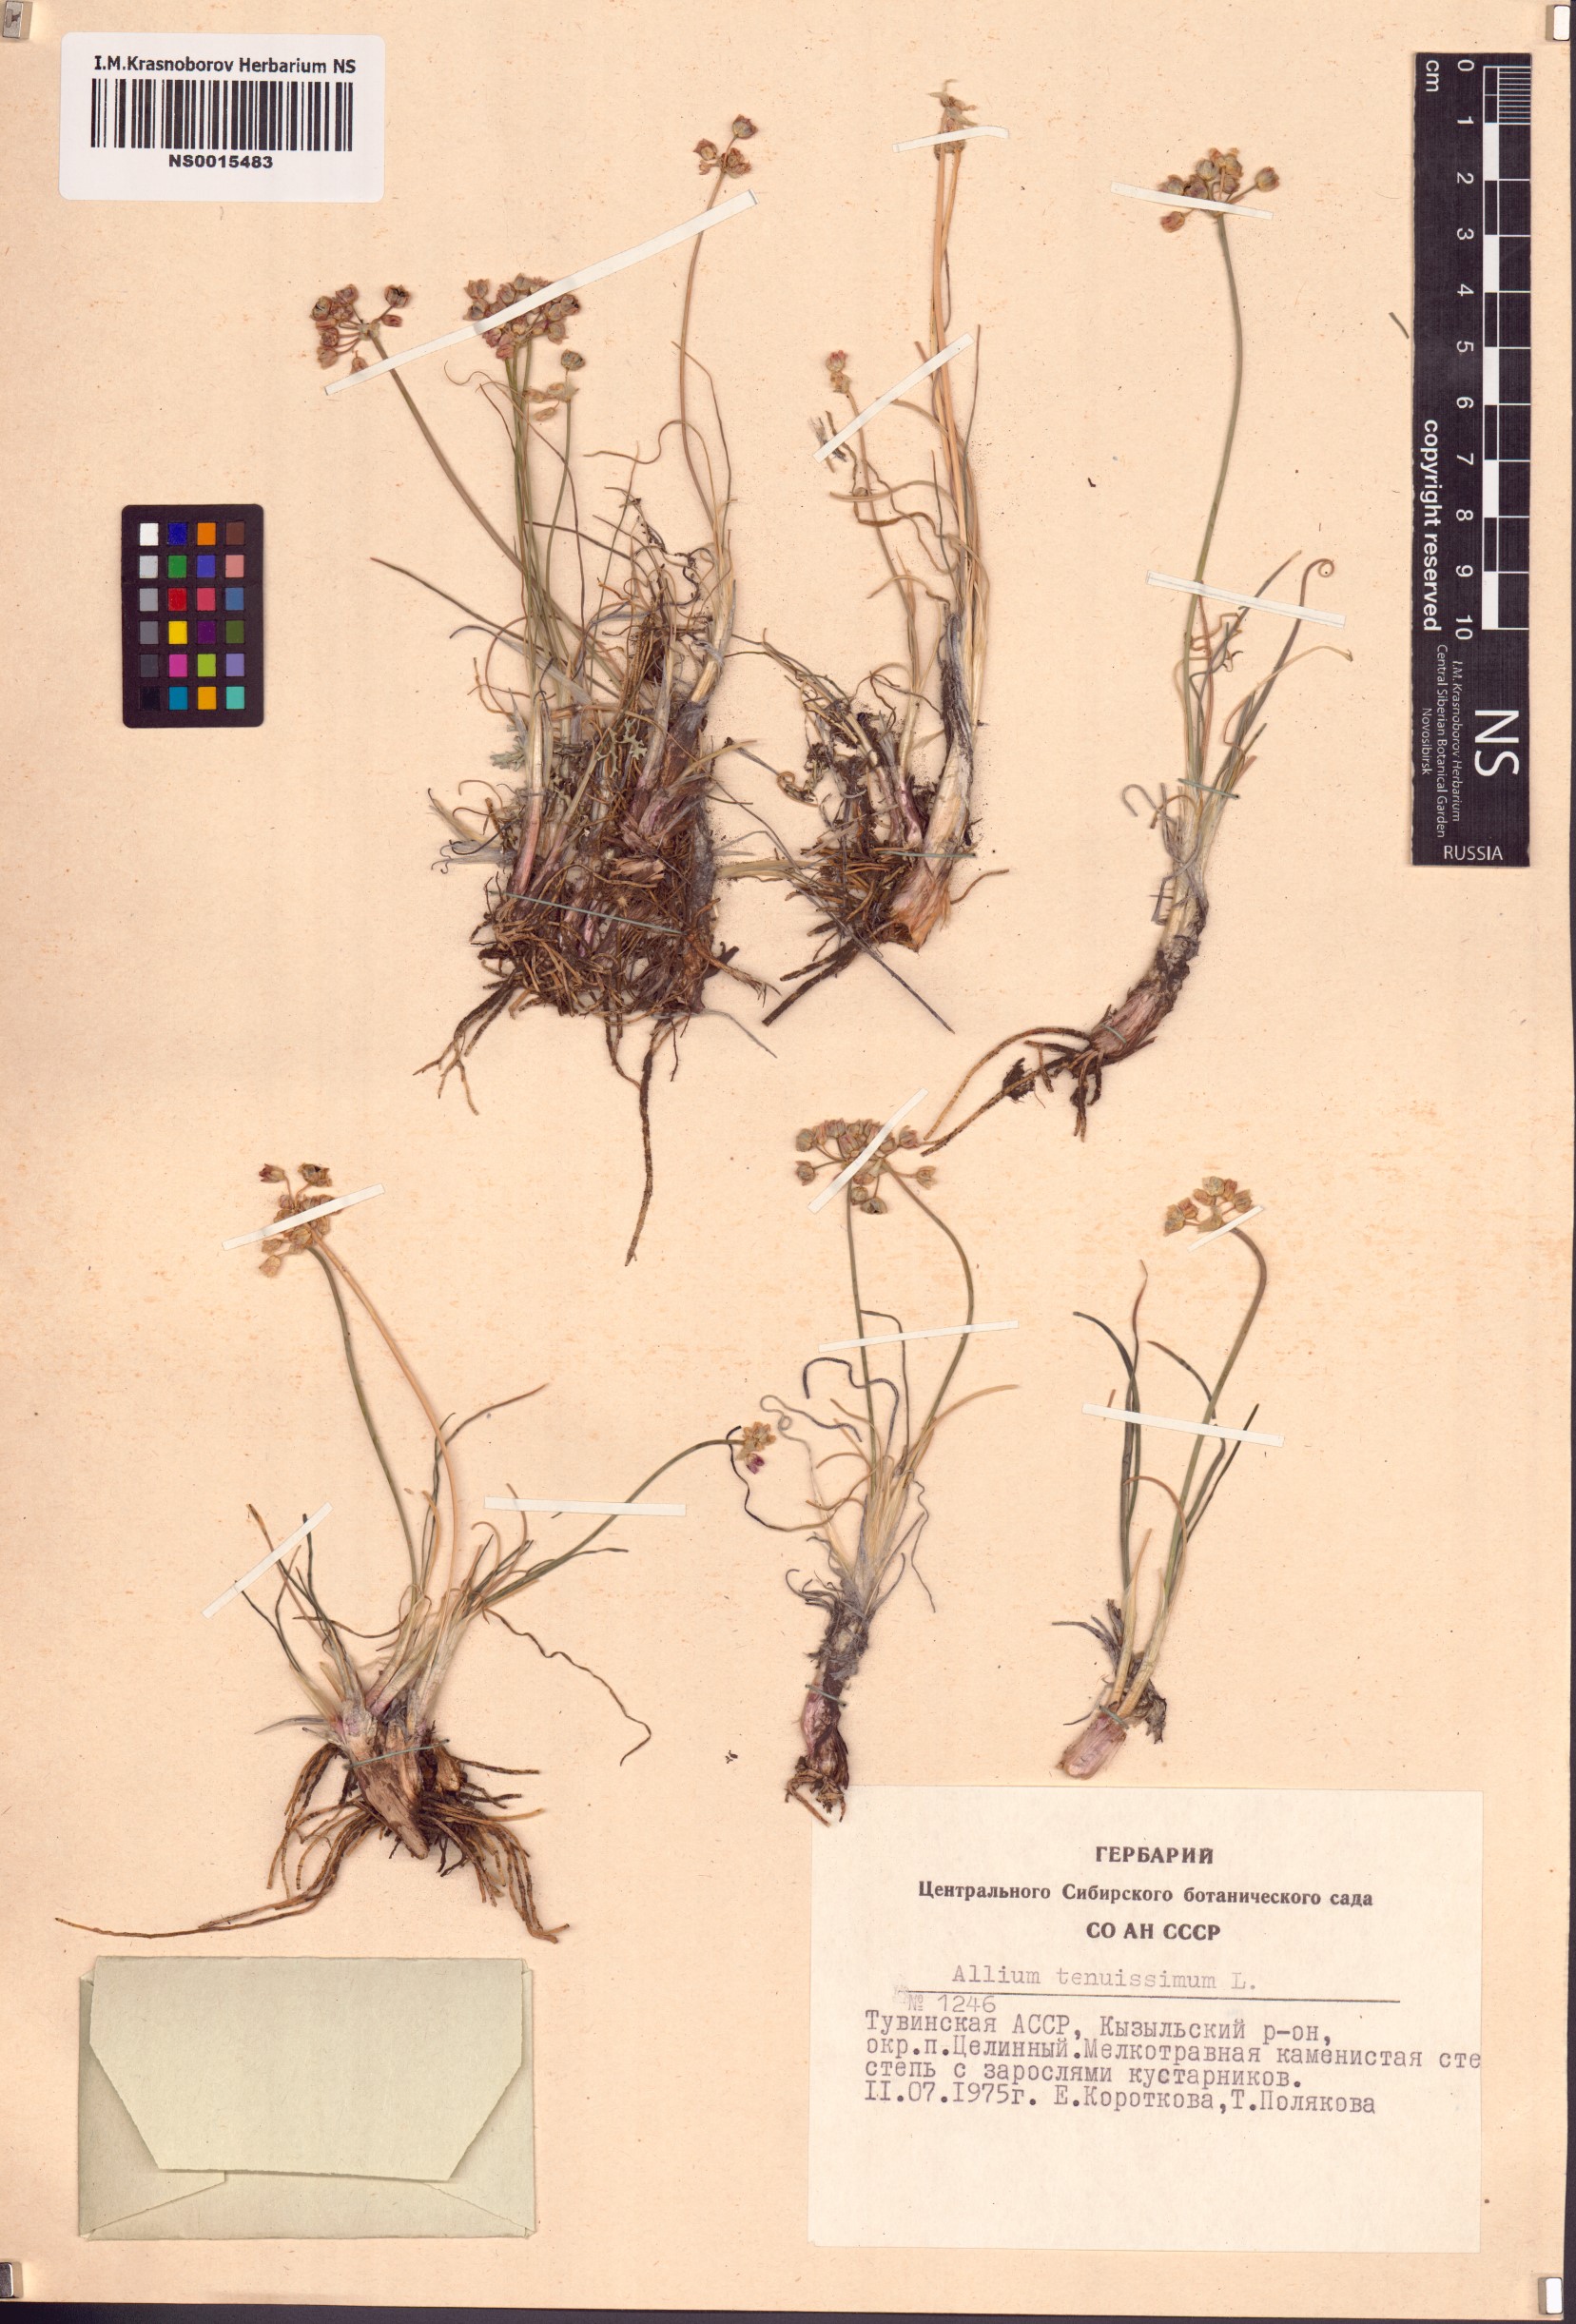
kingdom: Plantae
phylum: Tracheophyta
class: Liliopsida
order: Asparagales
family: Amaryllidaceae
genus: Allium
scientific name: Allium tenuissimum
